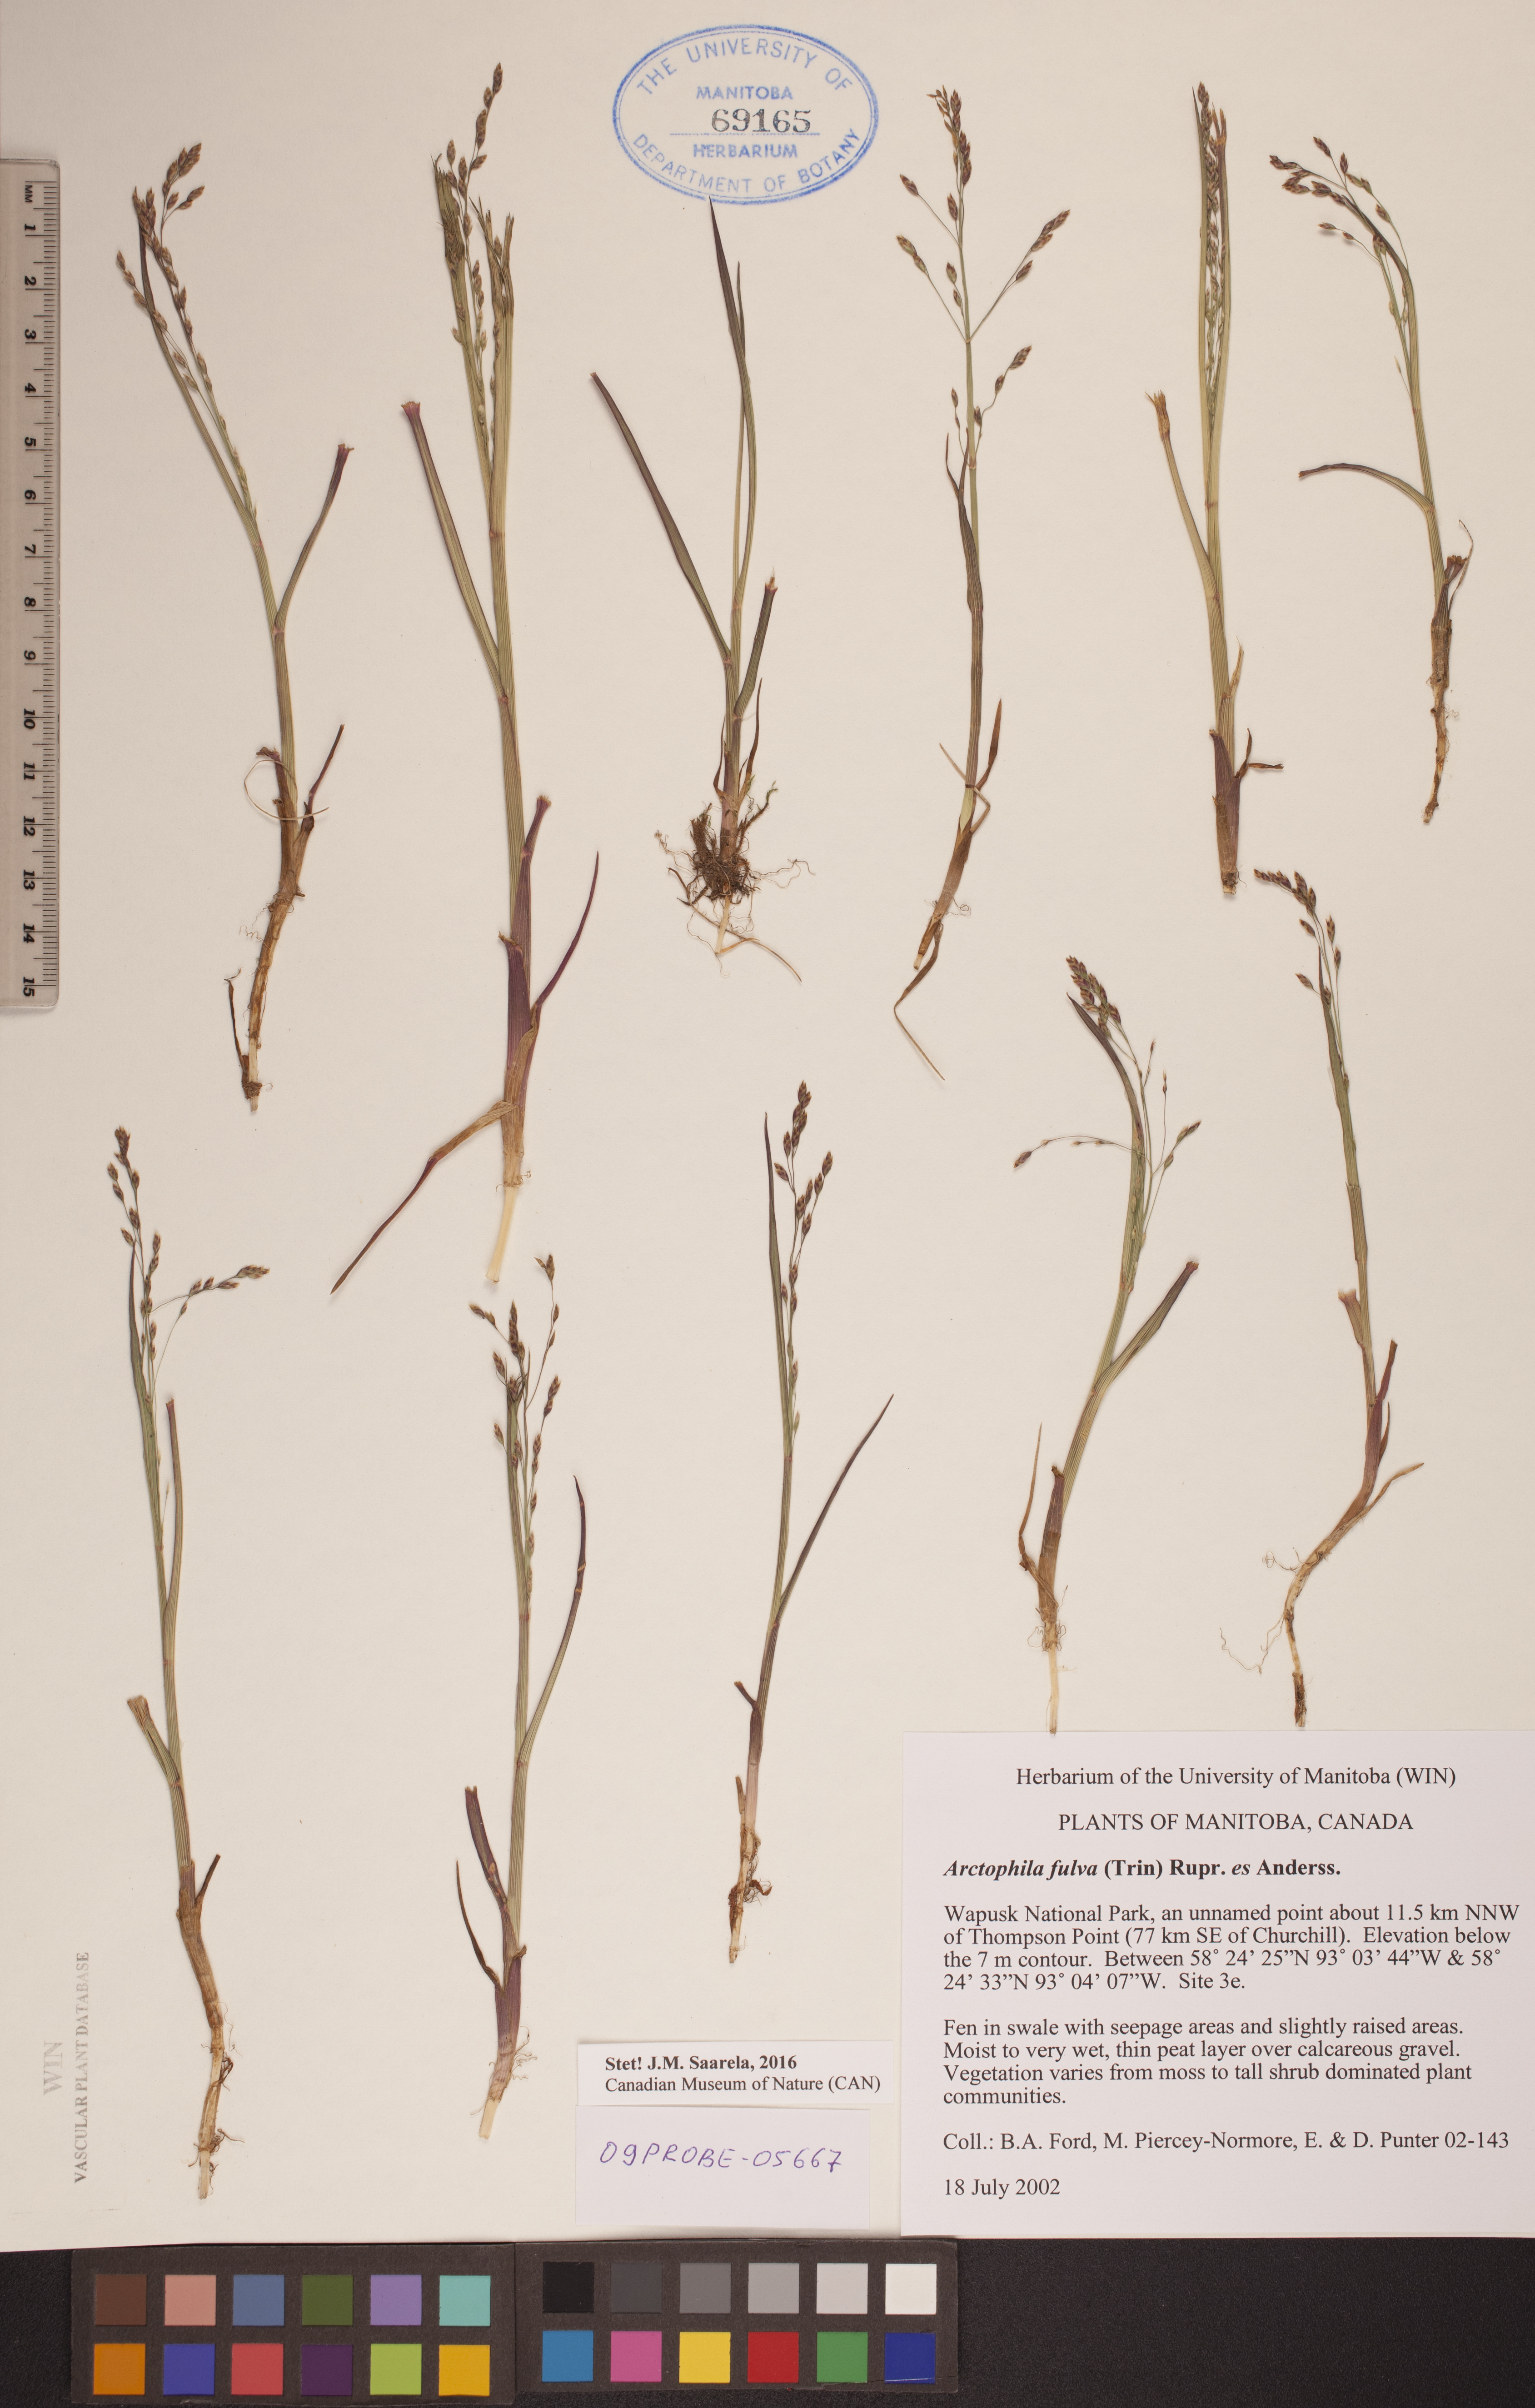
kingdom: Plantae
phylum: Tracheophyta
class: Liliopsida
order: Poales
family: Poaceae
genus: Dupontia
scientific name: Dupontia fulva
